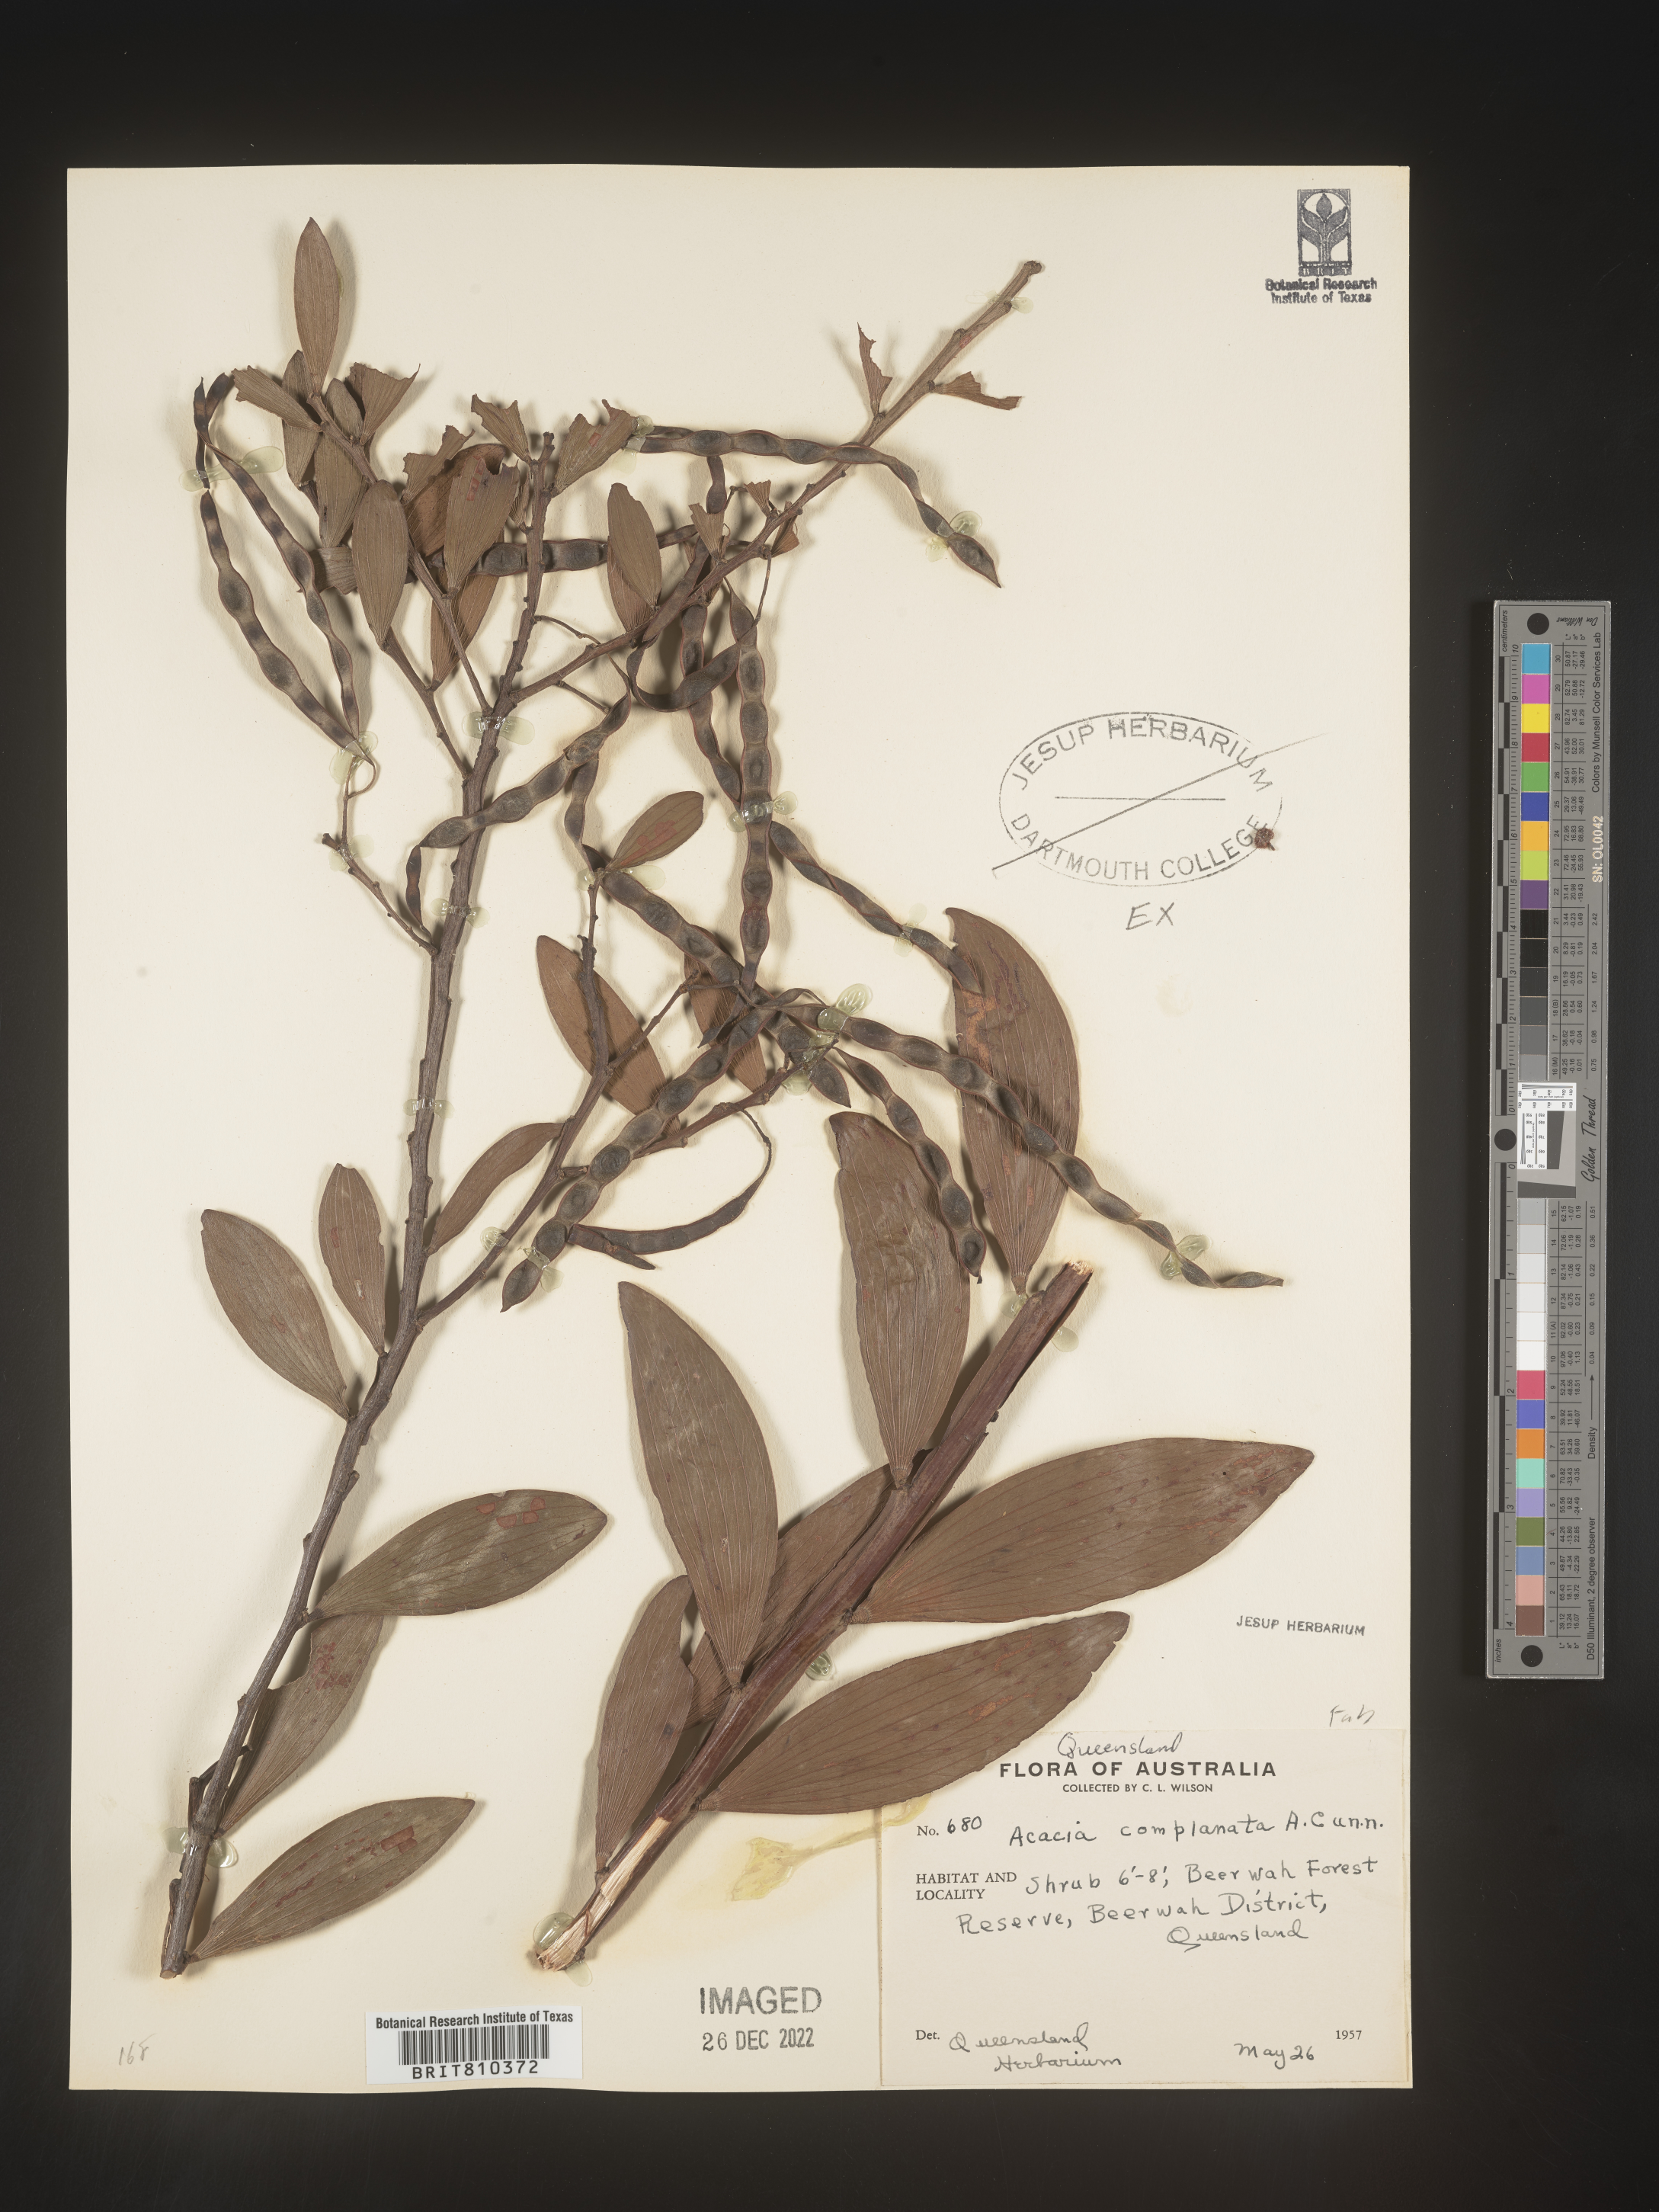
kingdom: Plantae
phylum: Tracheophyta
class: Magnoliopsida
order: Fabales
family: Fabaceae
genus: Acacia
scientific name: Acacia
